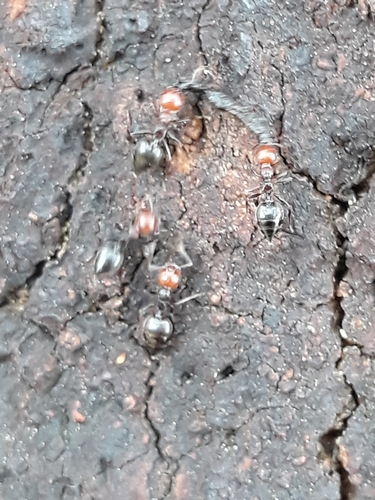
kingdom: Animalia
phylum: Arthropoda
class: Insecta
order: Hymenoptera
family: Formicidae
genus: Crematogaster
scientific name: Crematogaster scutellaris
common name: Fourmi du liège
